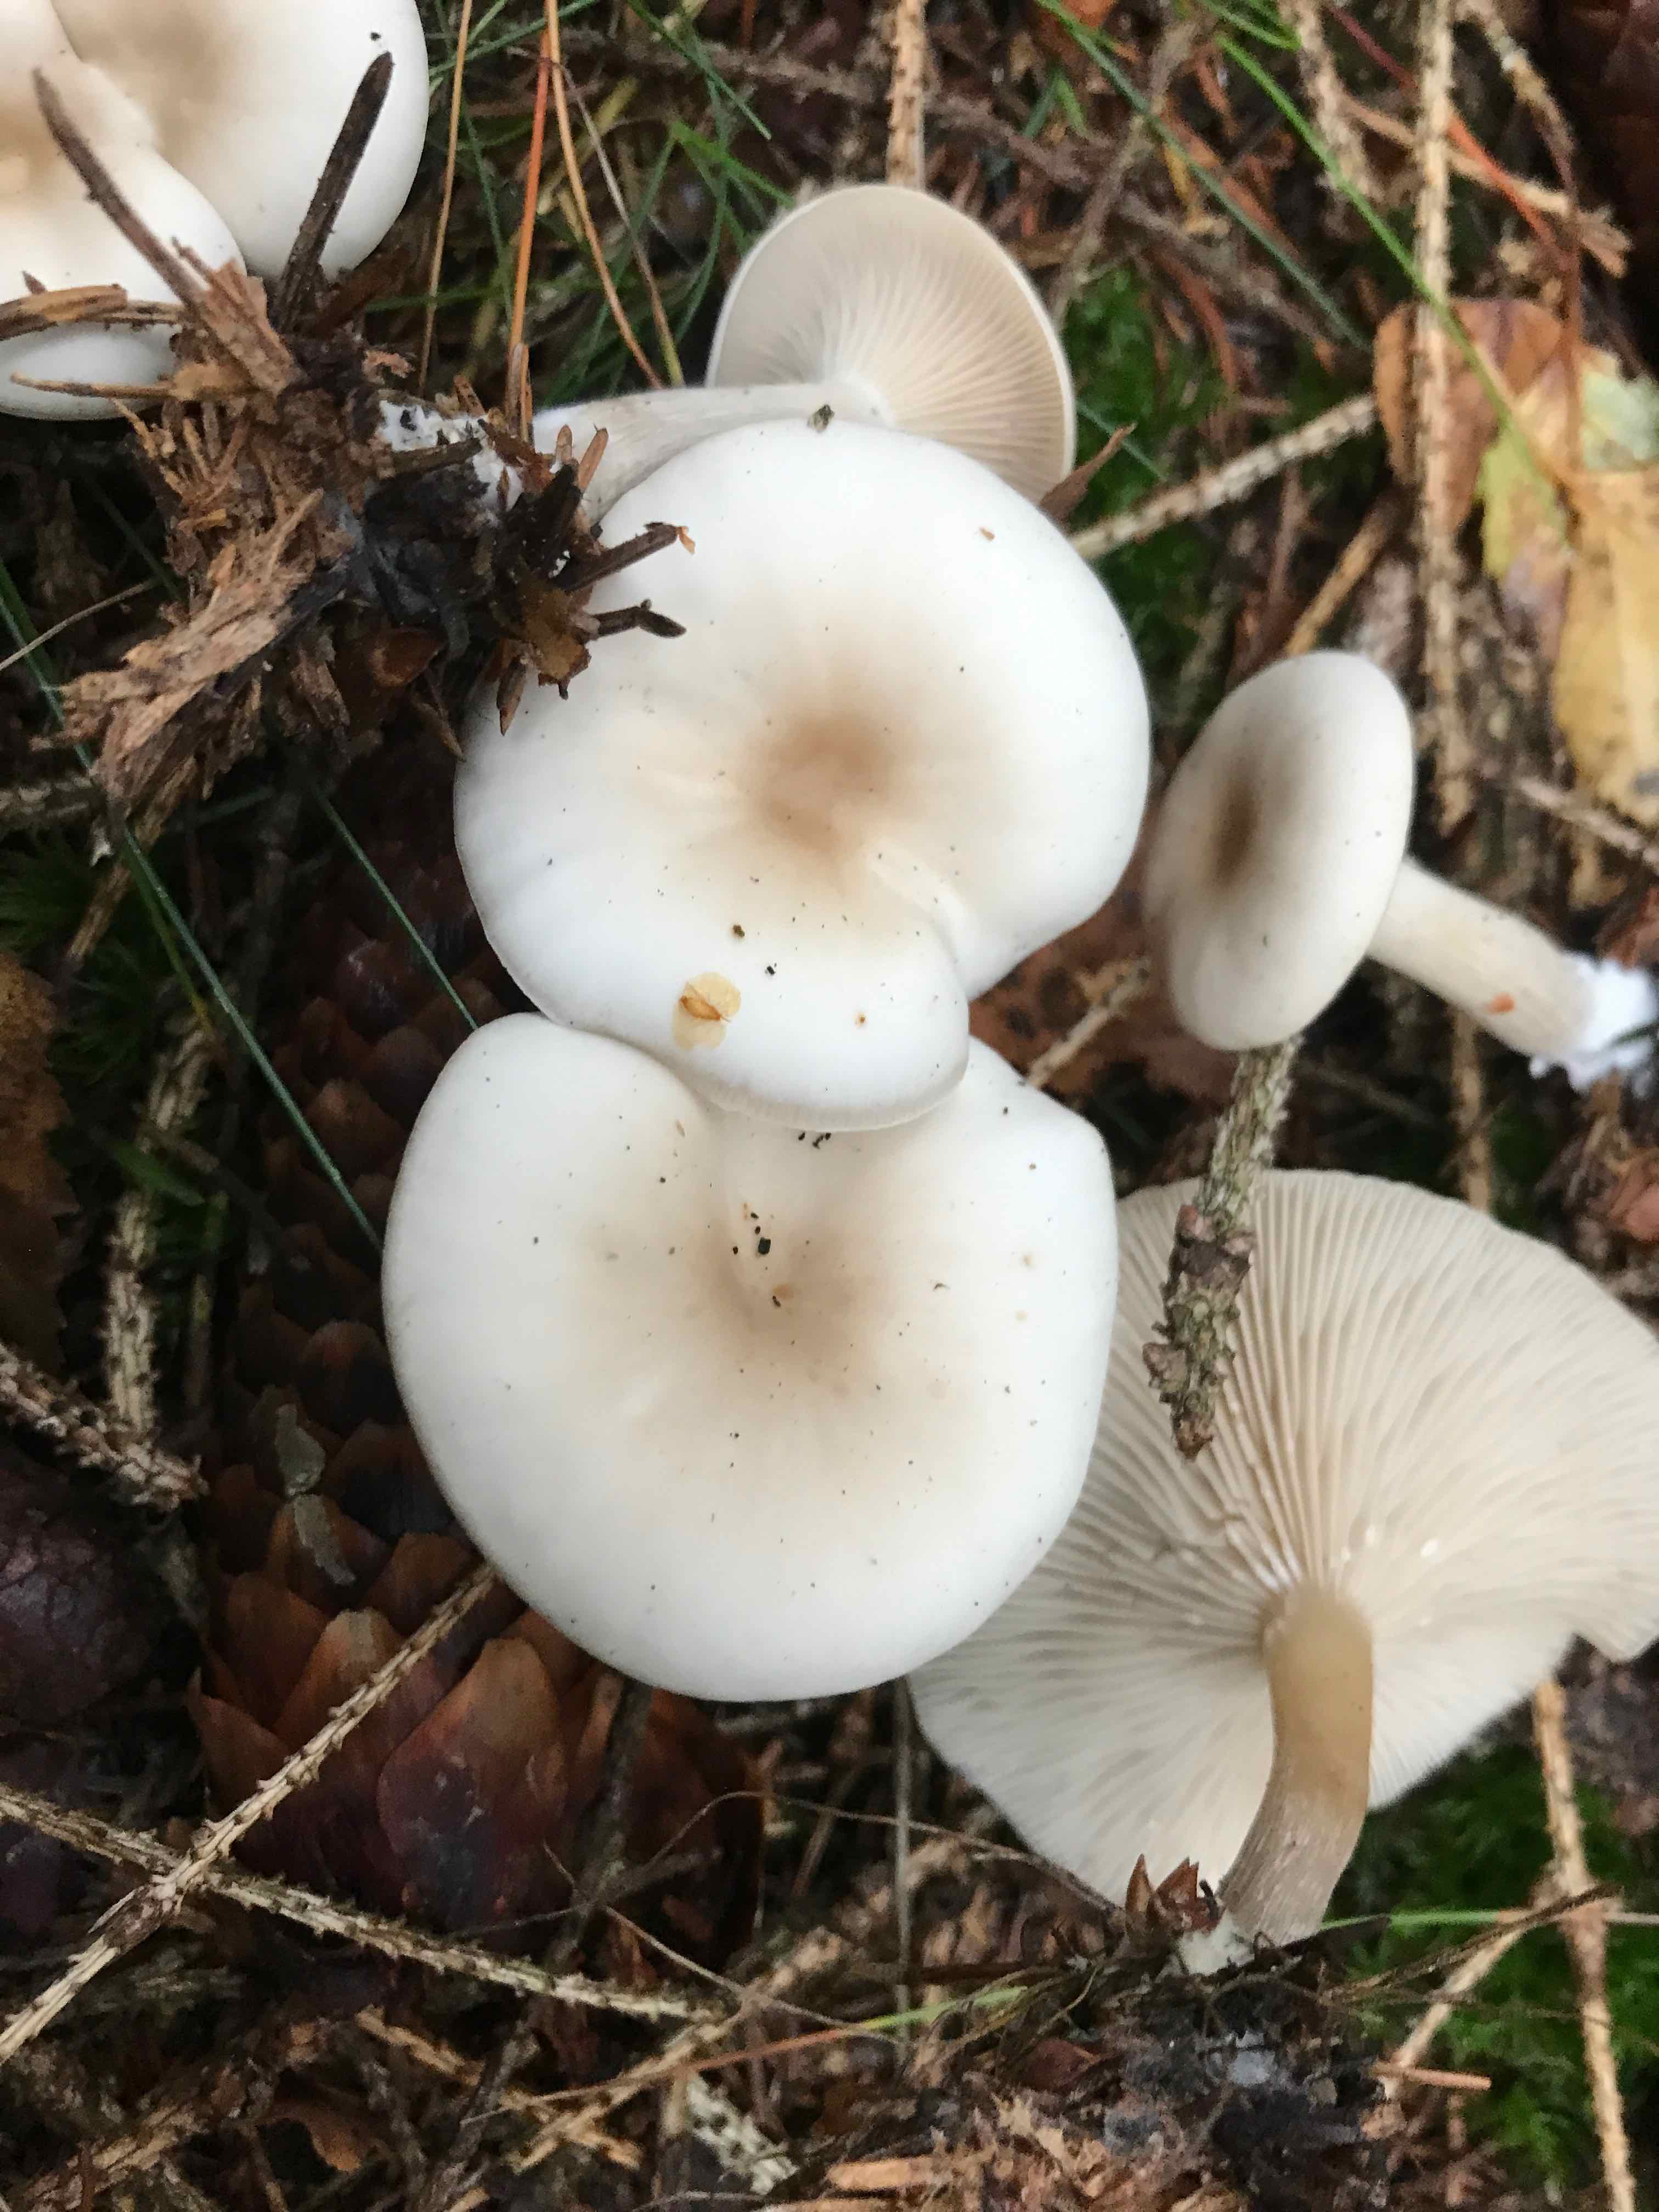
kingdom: Fungi
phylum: Basidiomycota
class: Agaricomycetes
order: Agaricales
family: Tricholomataceae
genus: Clitocybe
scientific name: Clitocybe metachroa
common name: grå tragthat
